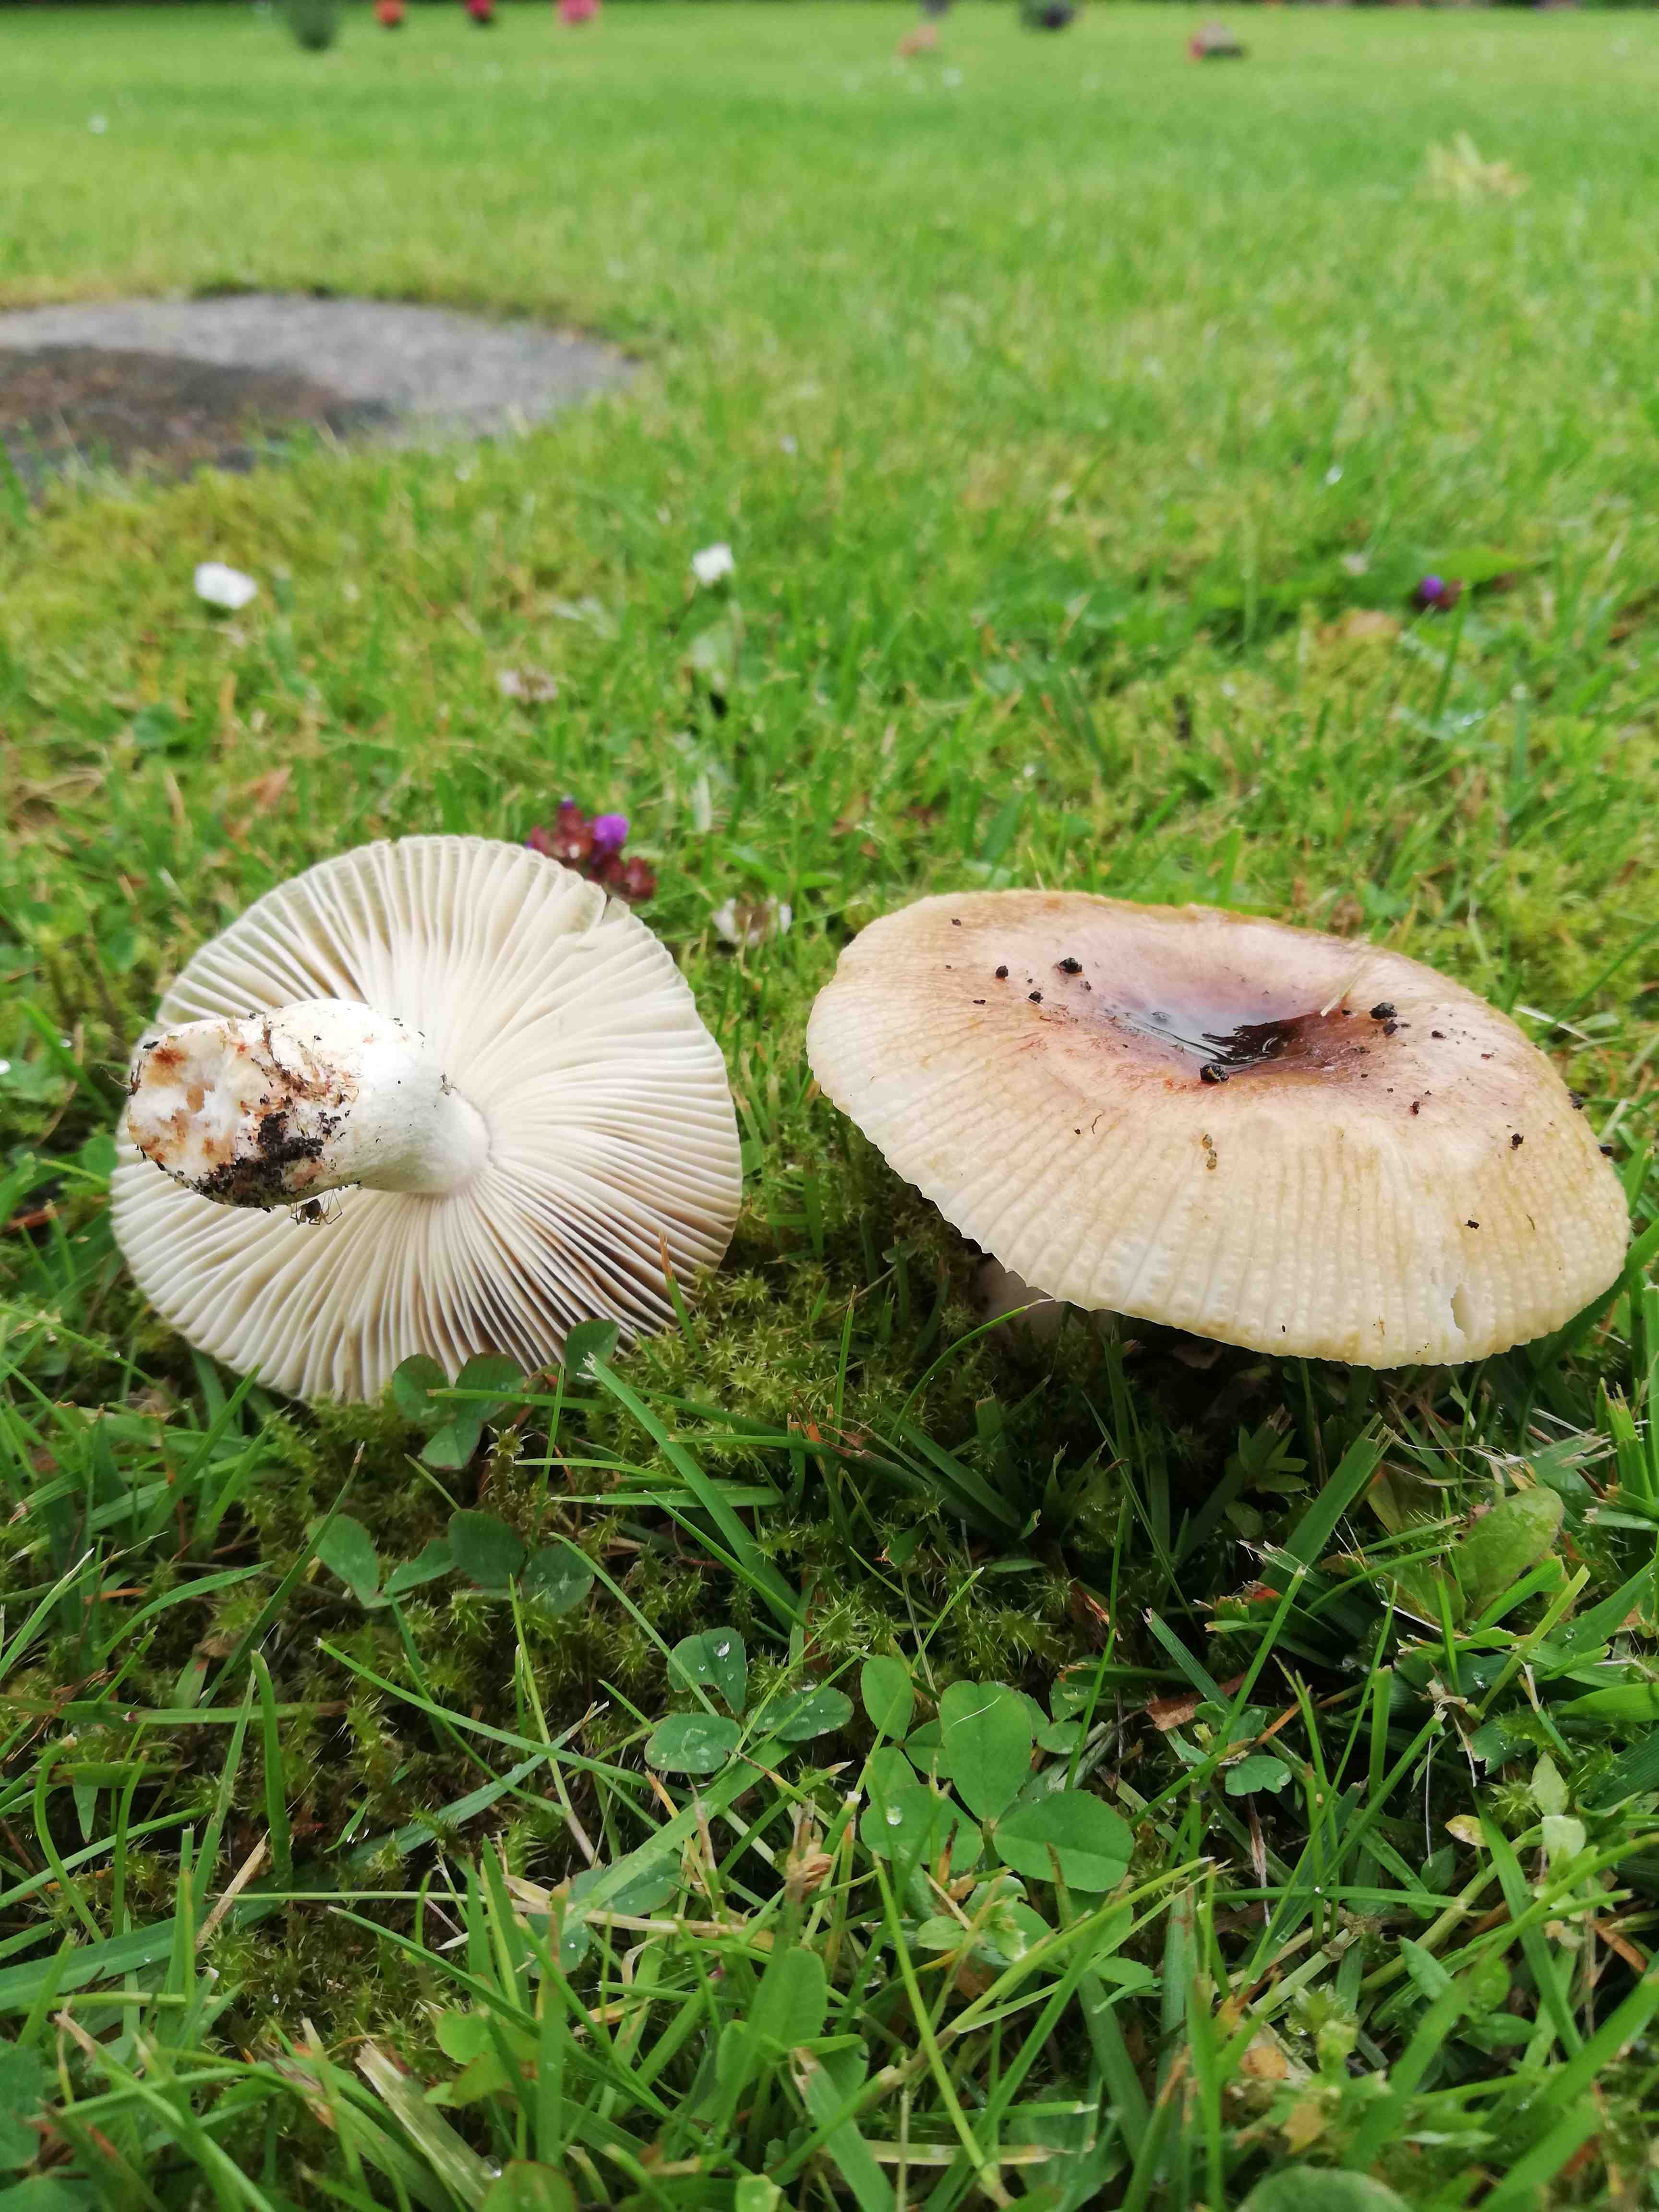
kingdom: Fungi
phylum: Basidiomycota
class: Agaricomycetes
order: Russulales
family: Russulaceae
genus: Russula
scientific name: Russula
